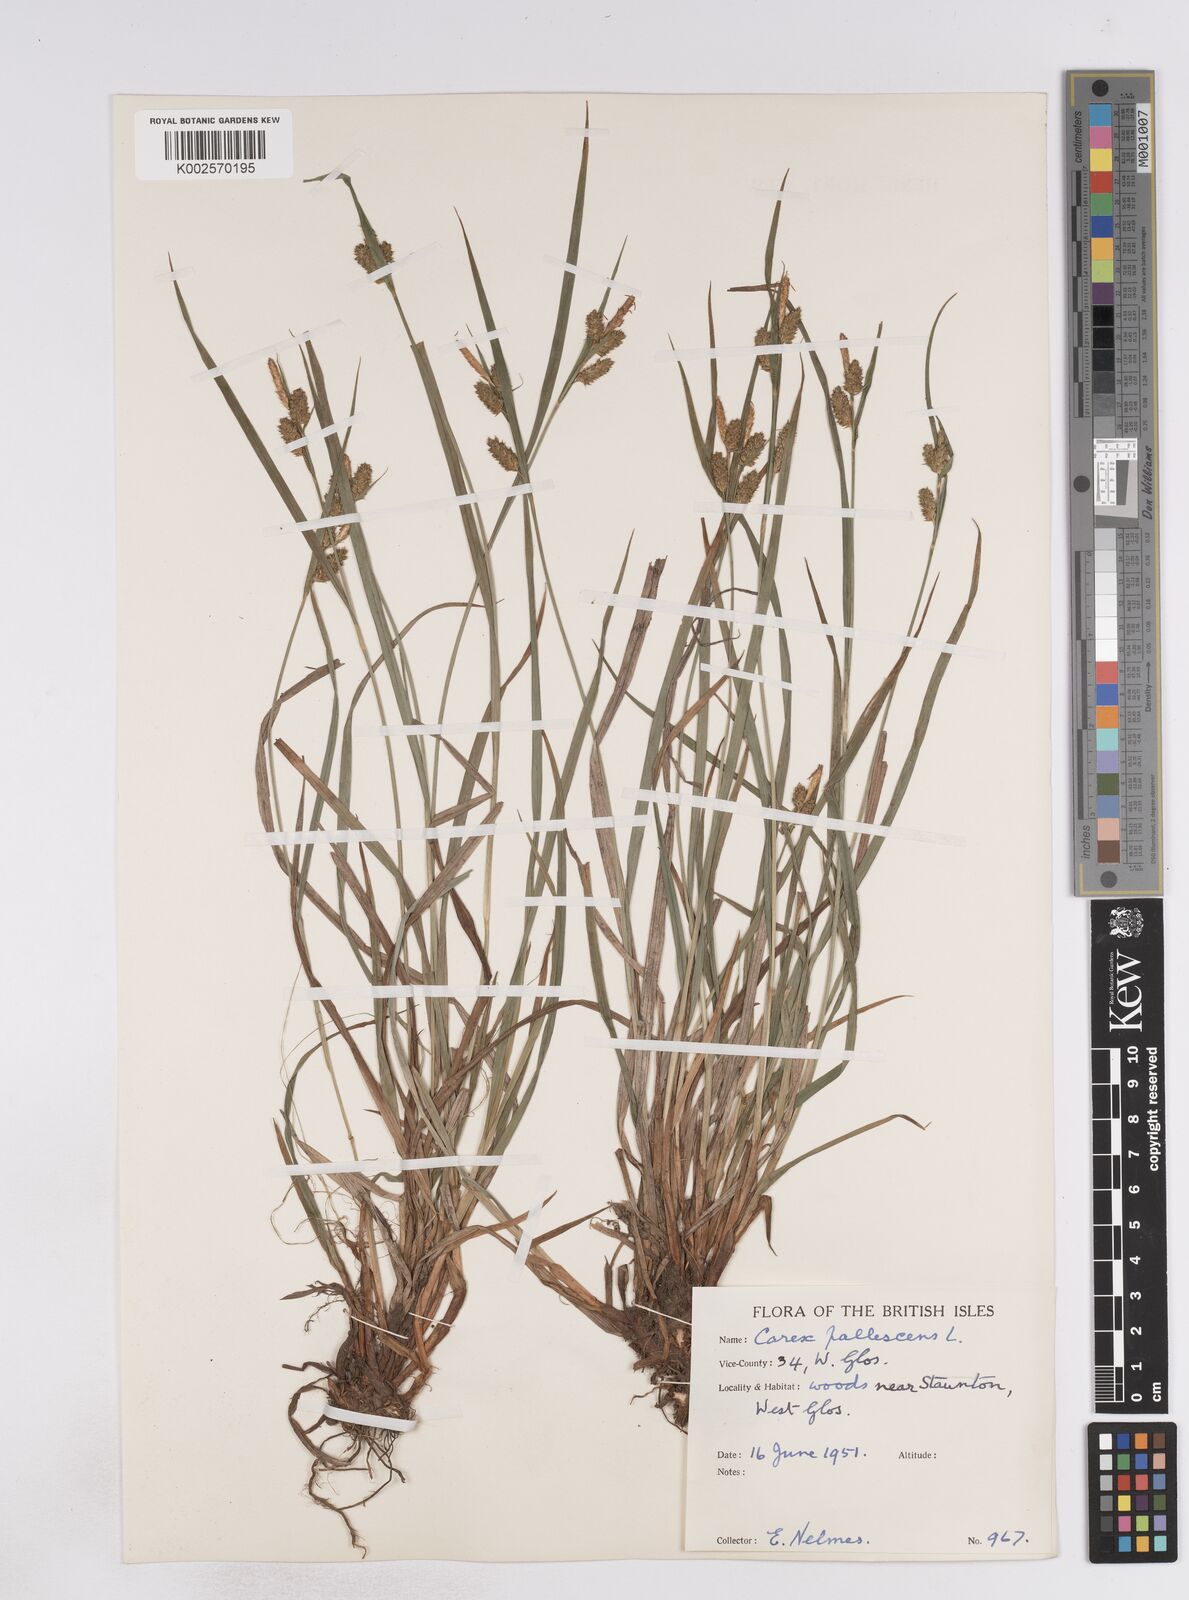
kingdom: Plantae
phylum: Tracheophyta
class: Liliopsida
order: Poales
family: Cyperaceae
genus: Carex
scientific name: Carex pallescens
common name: Pale sedge
